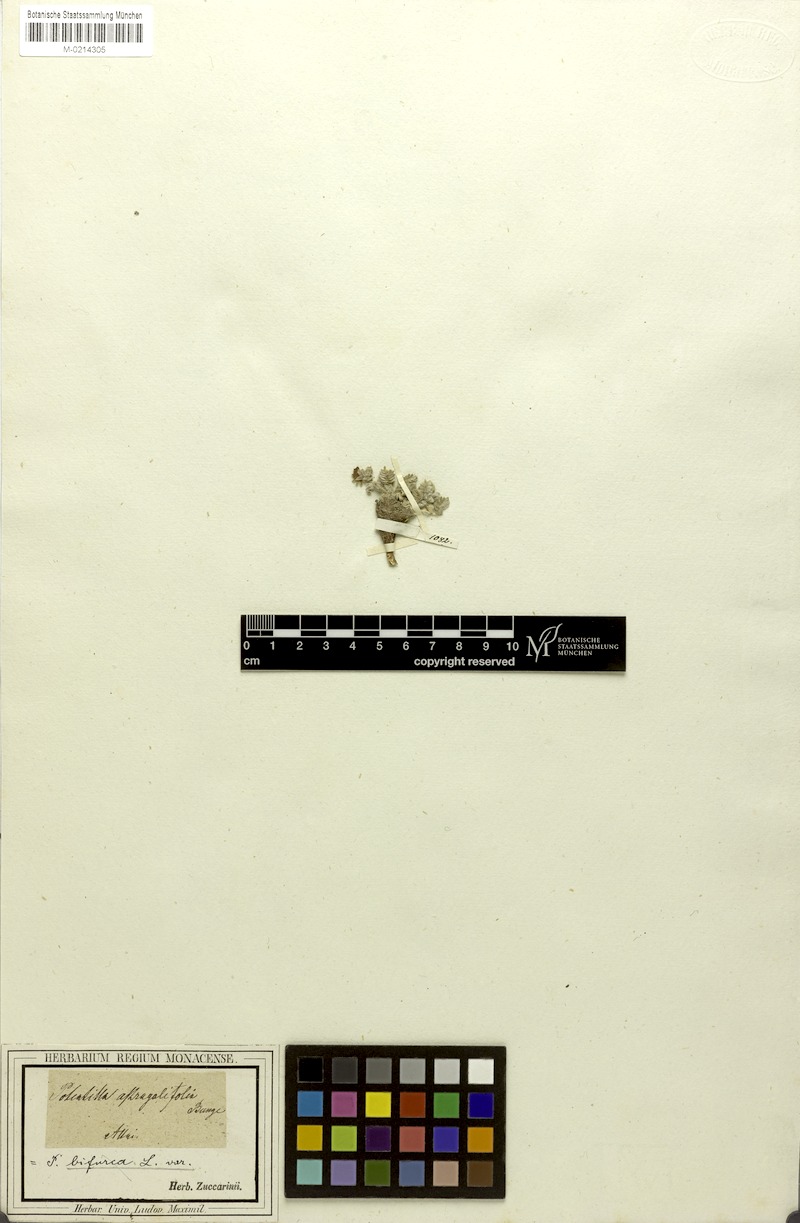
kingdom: Plantae
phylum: Tracheophyta
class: Magnoliopsida
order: Rosales
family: Rosaceae
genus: Potentilla
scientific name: Potentilla astragalifolia
